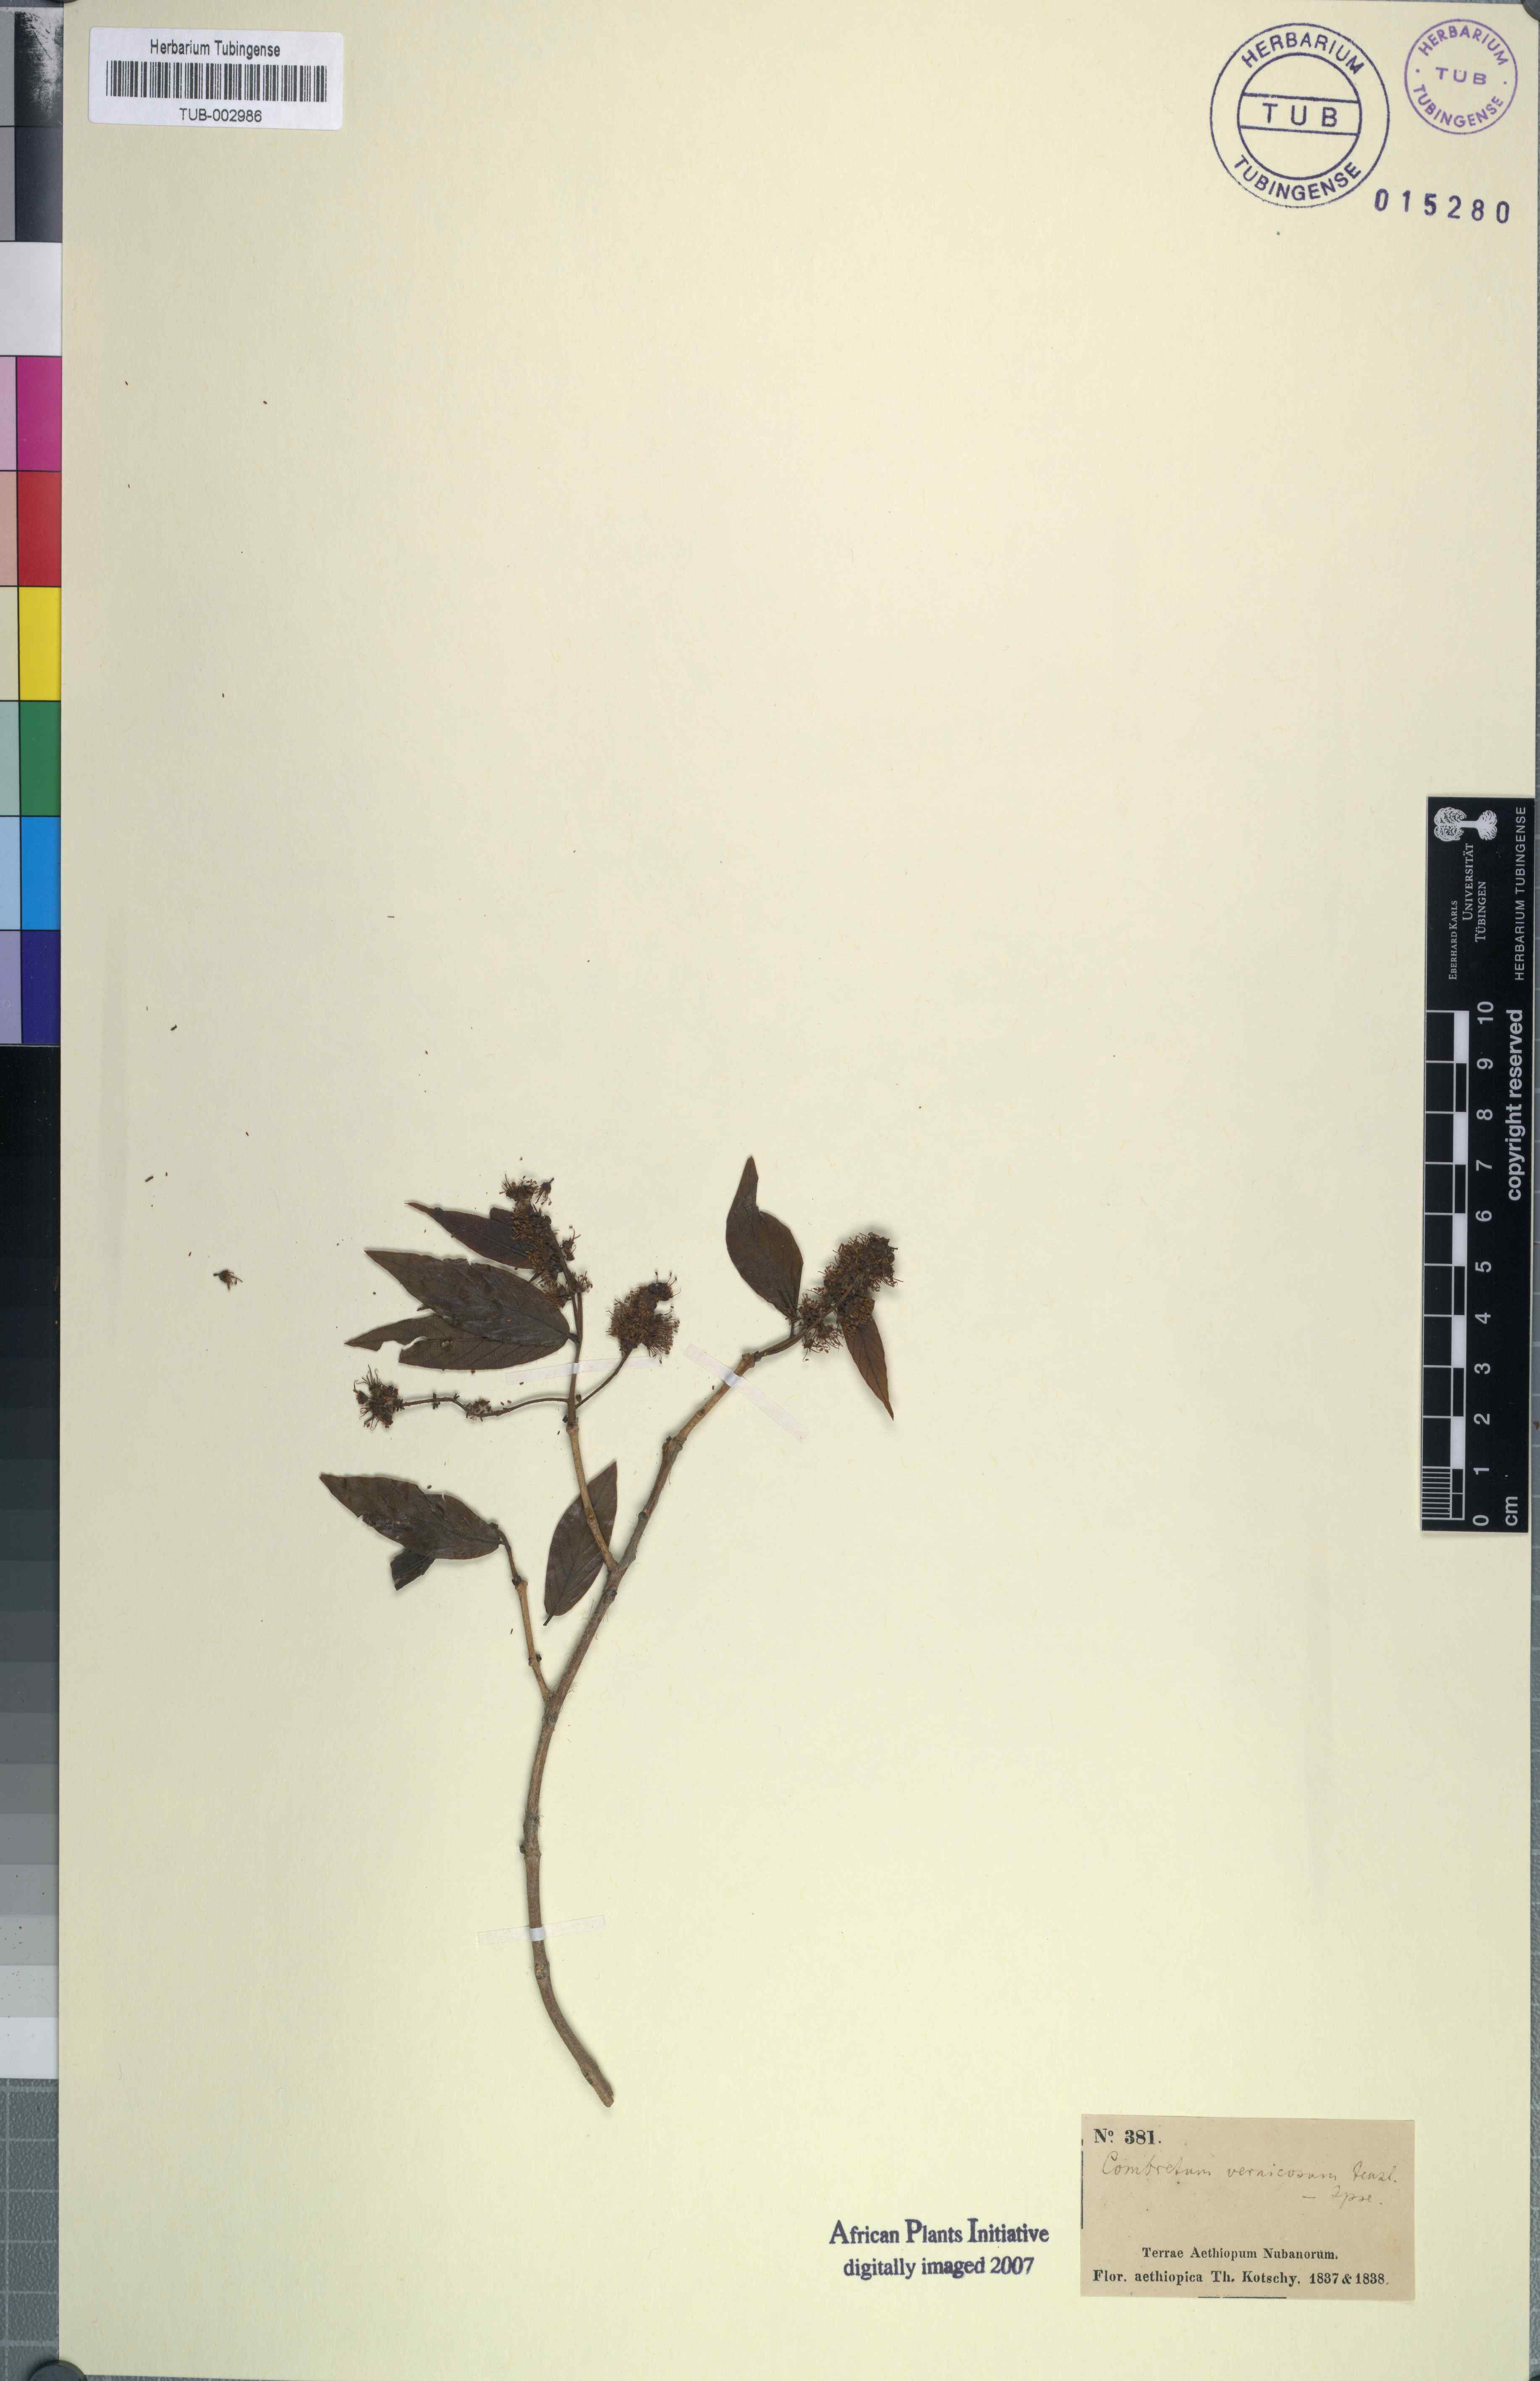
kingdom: Plantae
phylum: Tracheophyta
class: Magnoliopsida
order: Myrtales
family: Combretaceae
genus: Combretum
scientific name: Combretum molle
